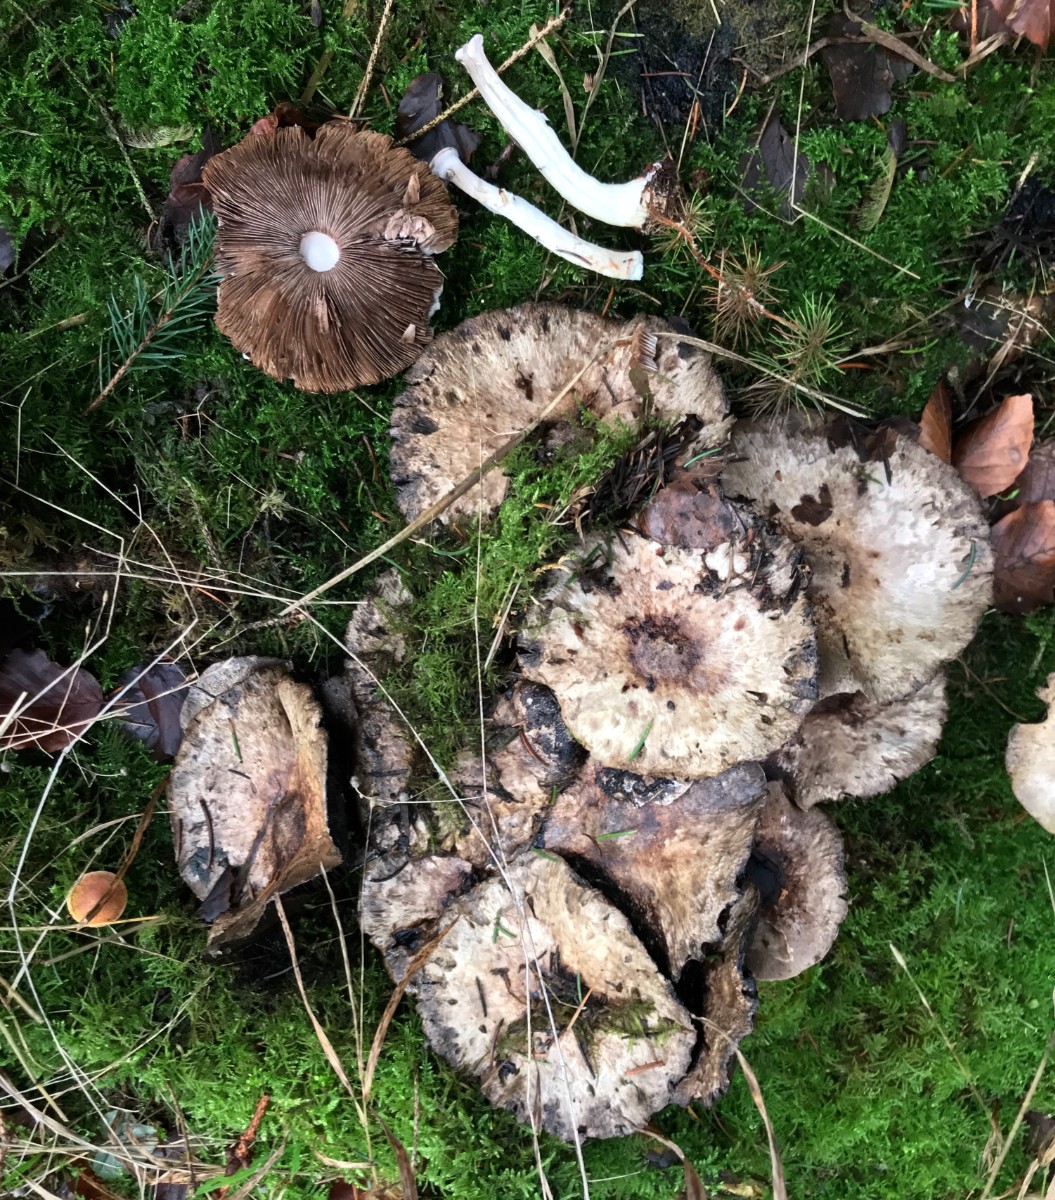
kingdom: Fungi
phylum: Basidiomycota
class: Agaricomycetes
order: Agaricales
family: Agaricaceae
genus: Agaricus
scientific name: Agaricus impudicus
